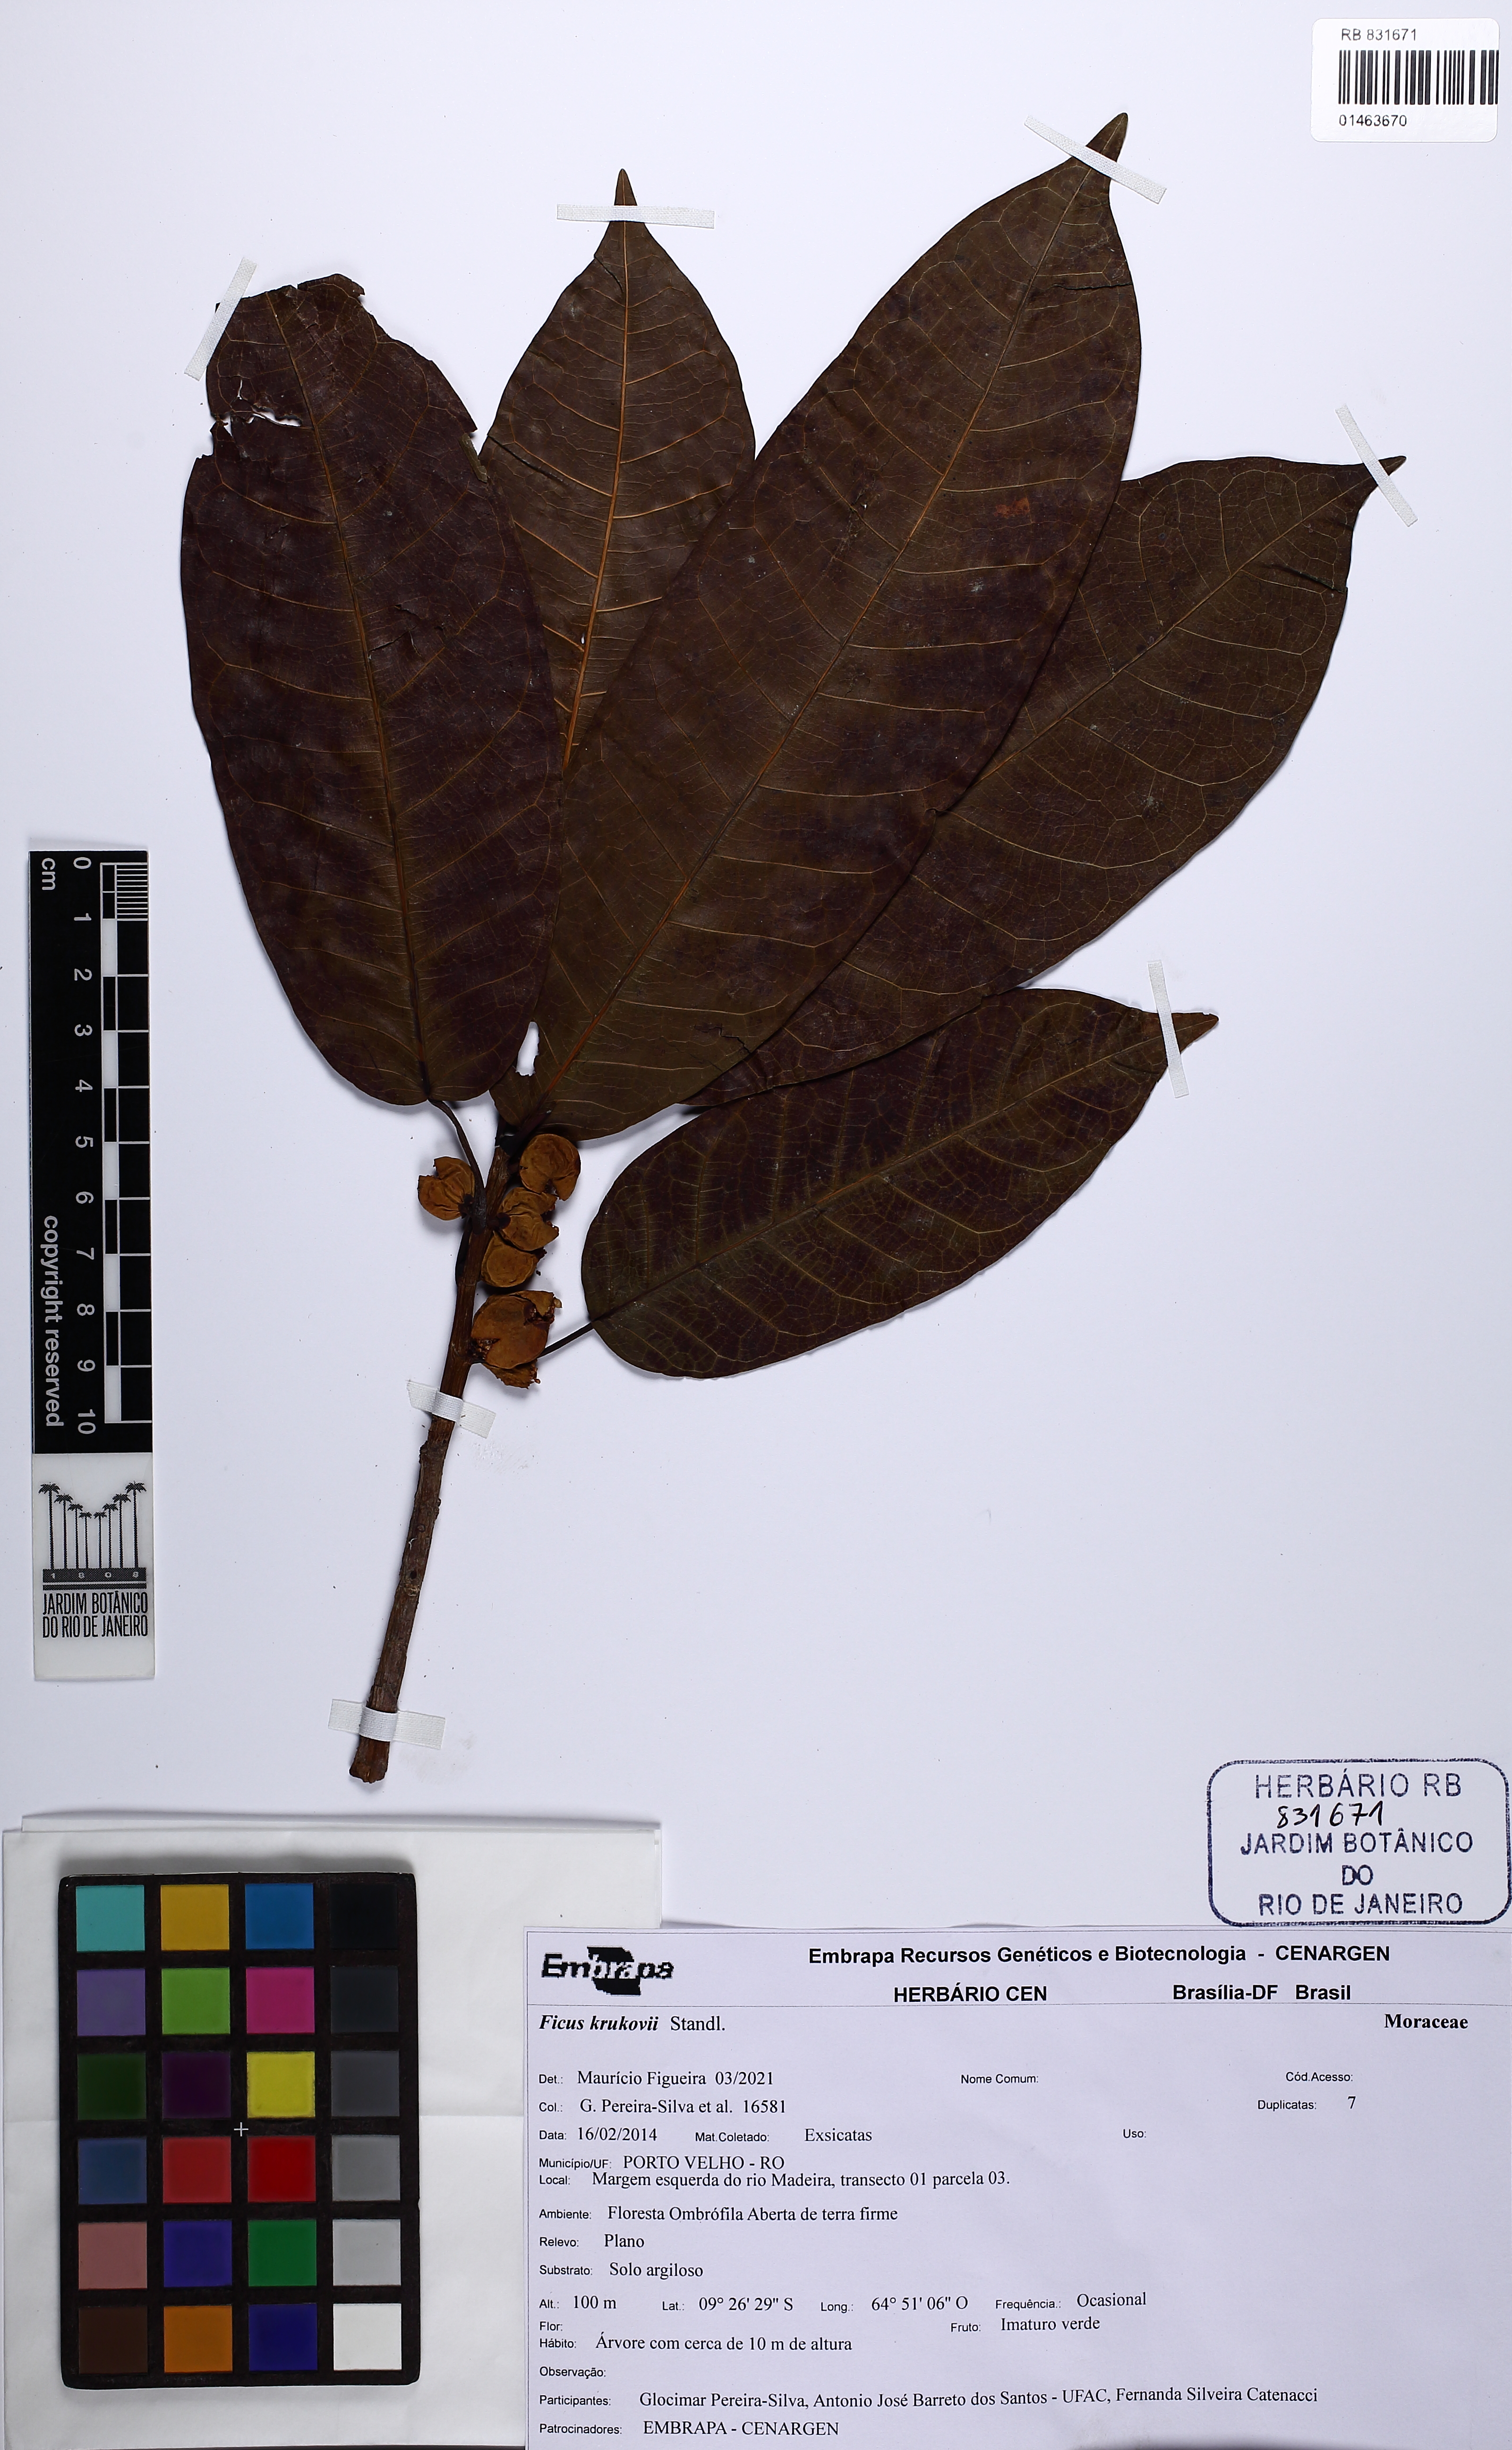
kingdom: Plantae
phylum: Tracheophyta
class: Magnoliopsida
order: Rosales
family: Moraceae
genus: Ficus
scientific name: Ficus krukovii
